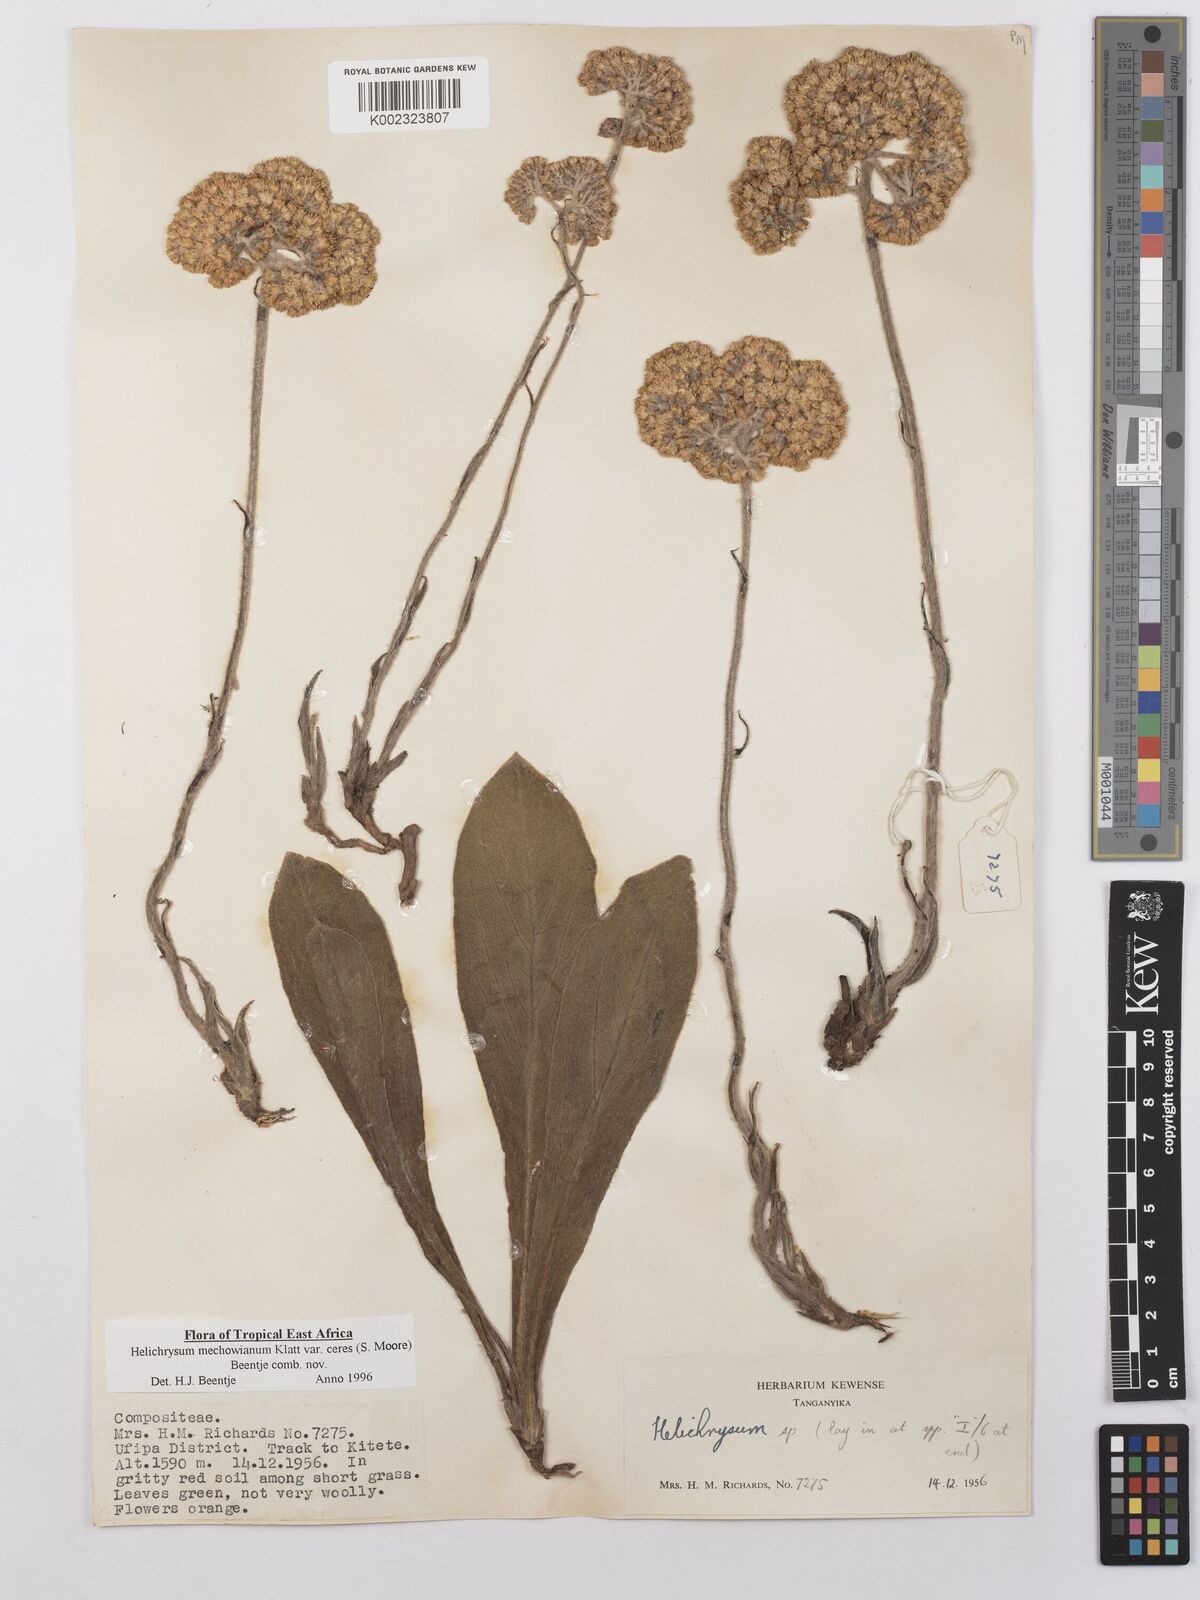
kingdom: Plantae
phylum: Tracheophyta
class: Magnoliopsida
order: Asterales
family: Asteraceae
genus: Helichrysum
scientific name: Helichrysum mechowianum
